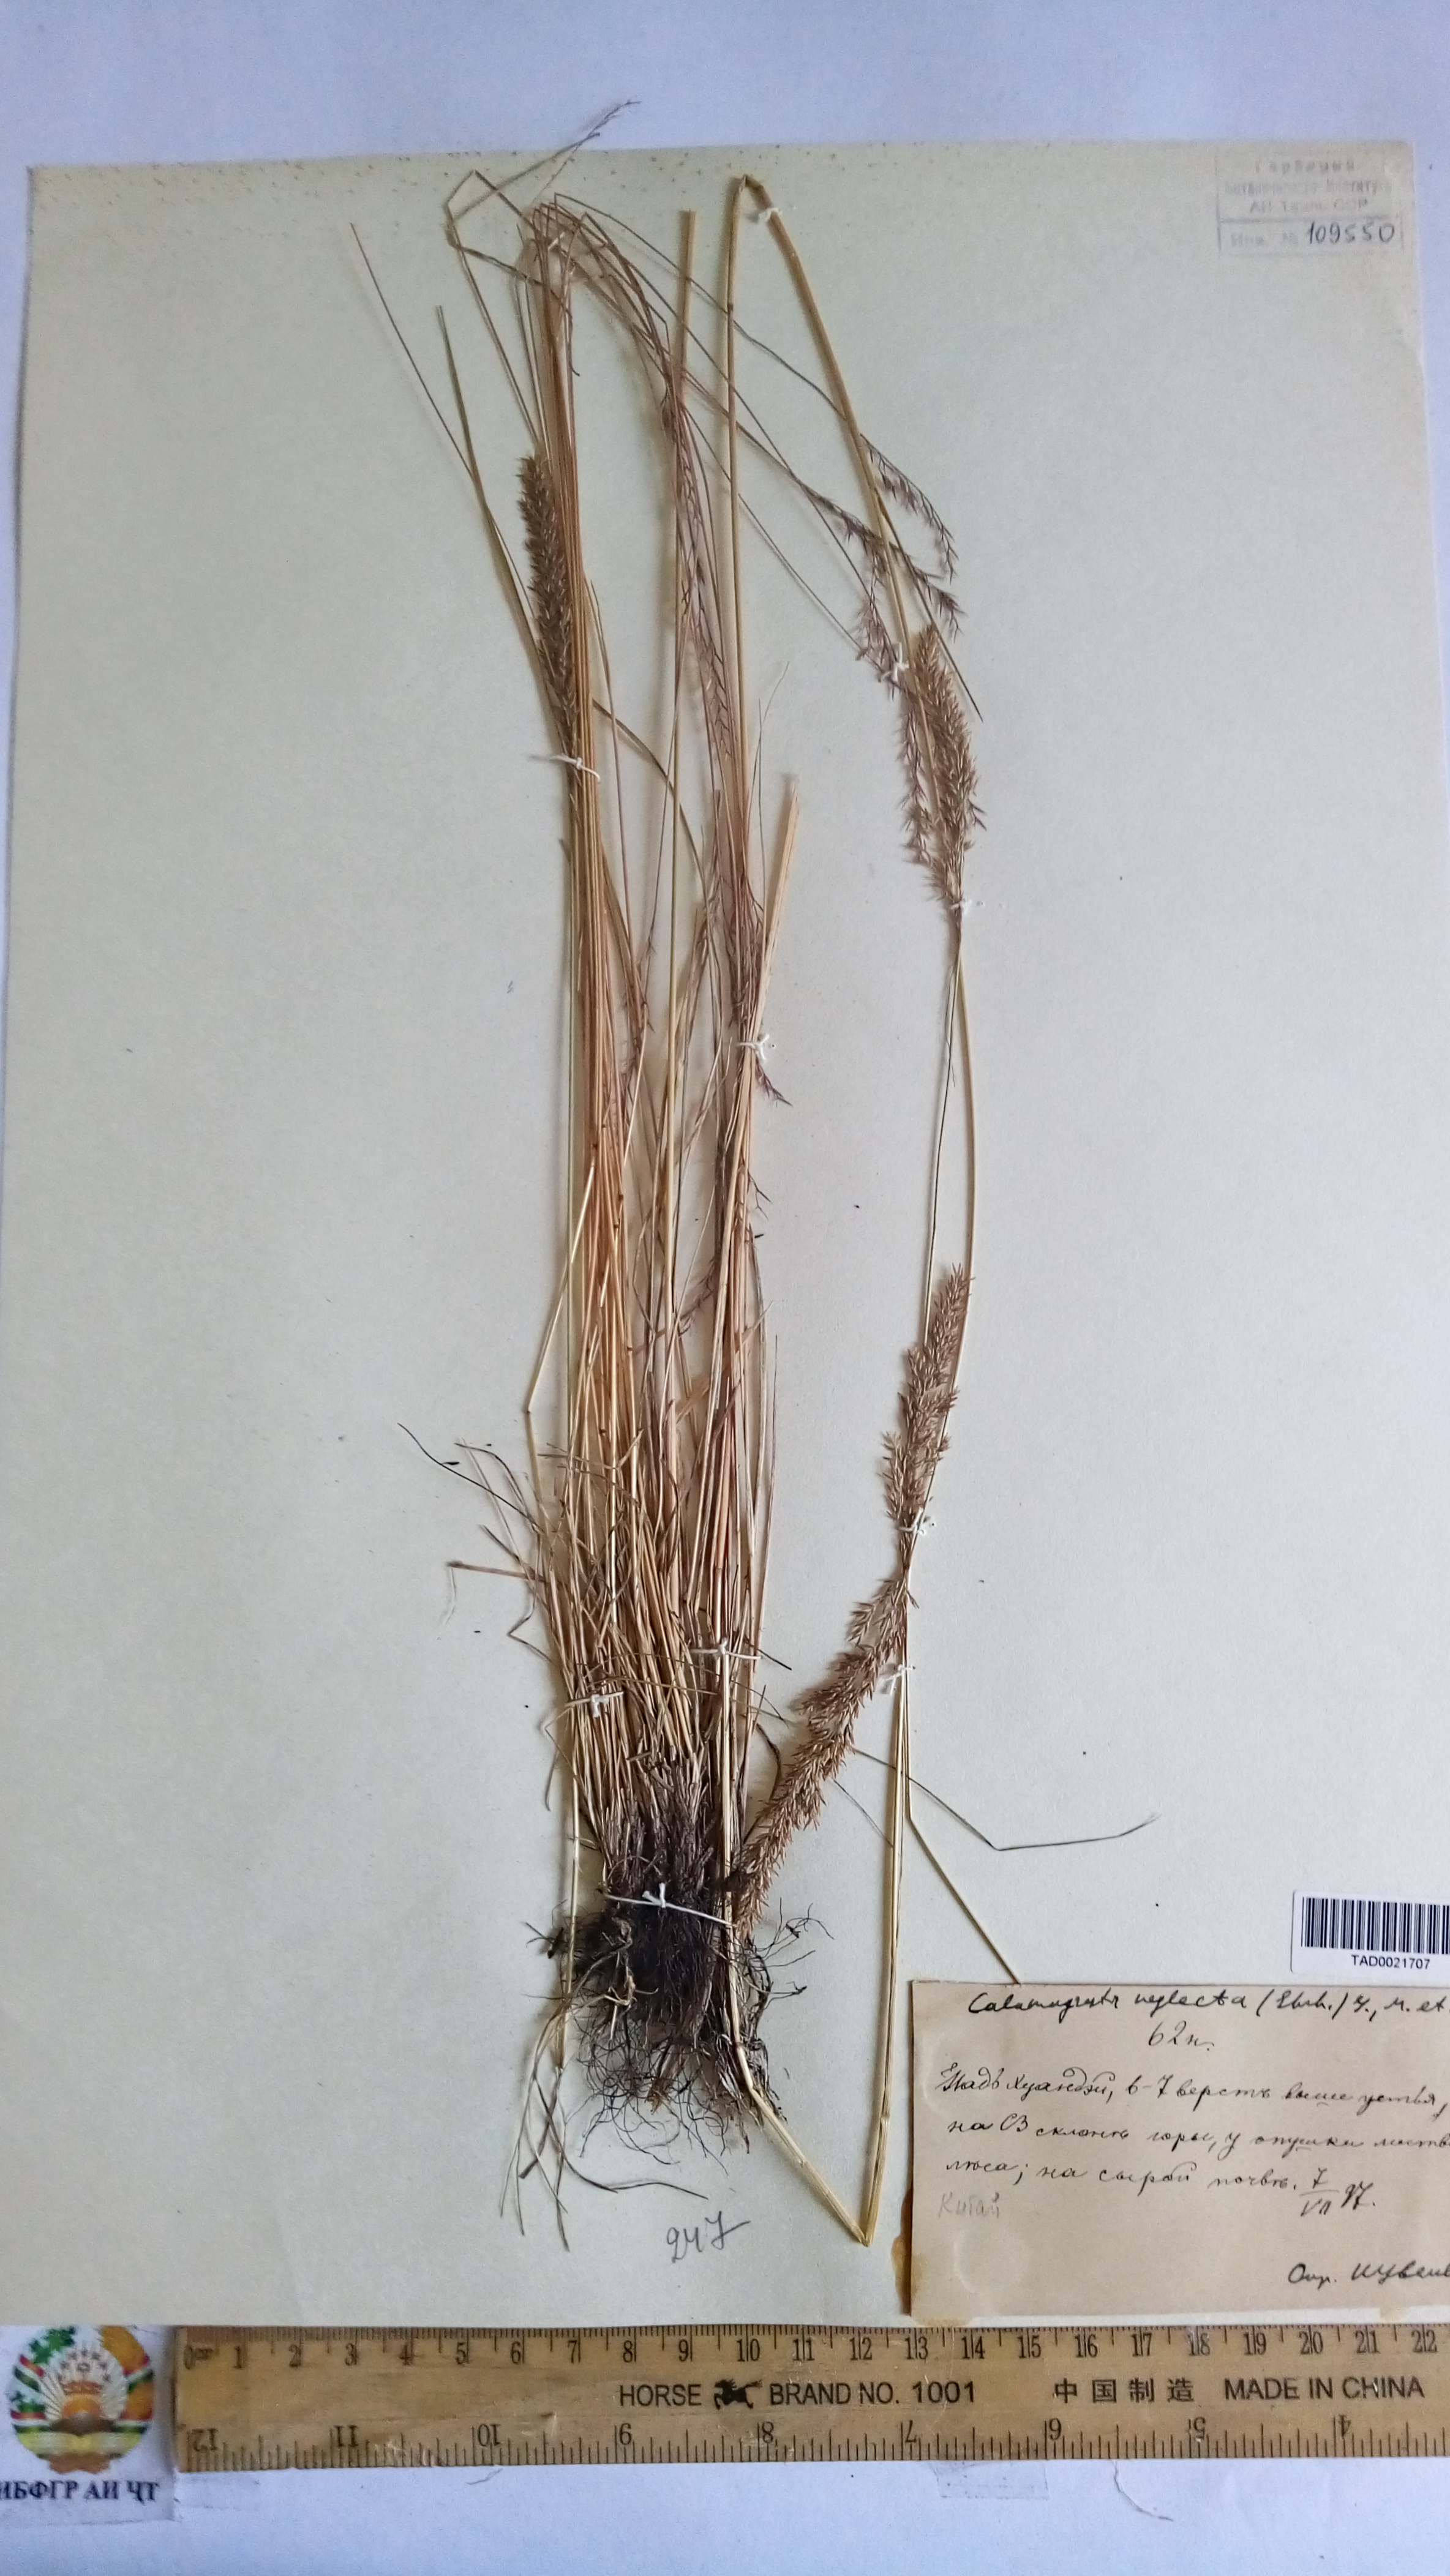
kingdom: Plantae
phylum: Tracheophyta
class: Liliopsida
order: Poales
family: Poaceae
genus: Calamagrostis
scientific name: Calamagrostis tianschanica
